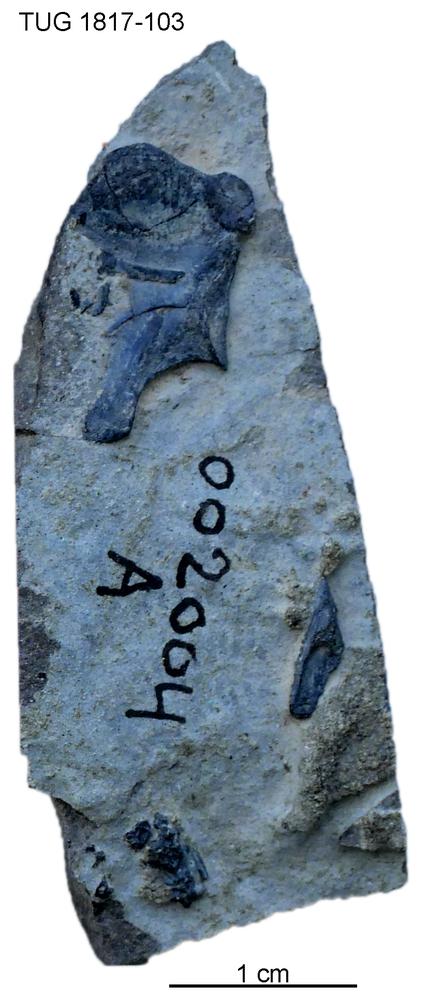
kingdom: Animalia
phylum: Chordata
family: Coccosteidae
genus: Millerosteus
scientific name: Millerosteus minor
